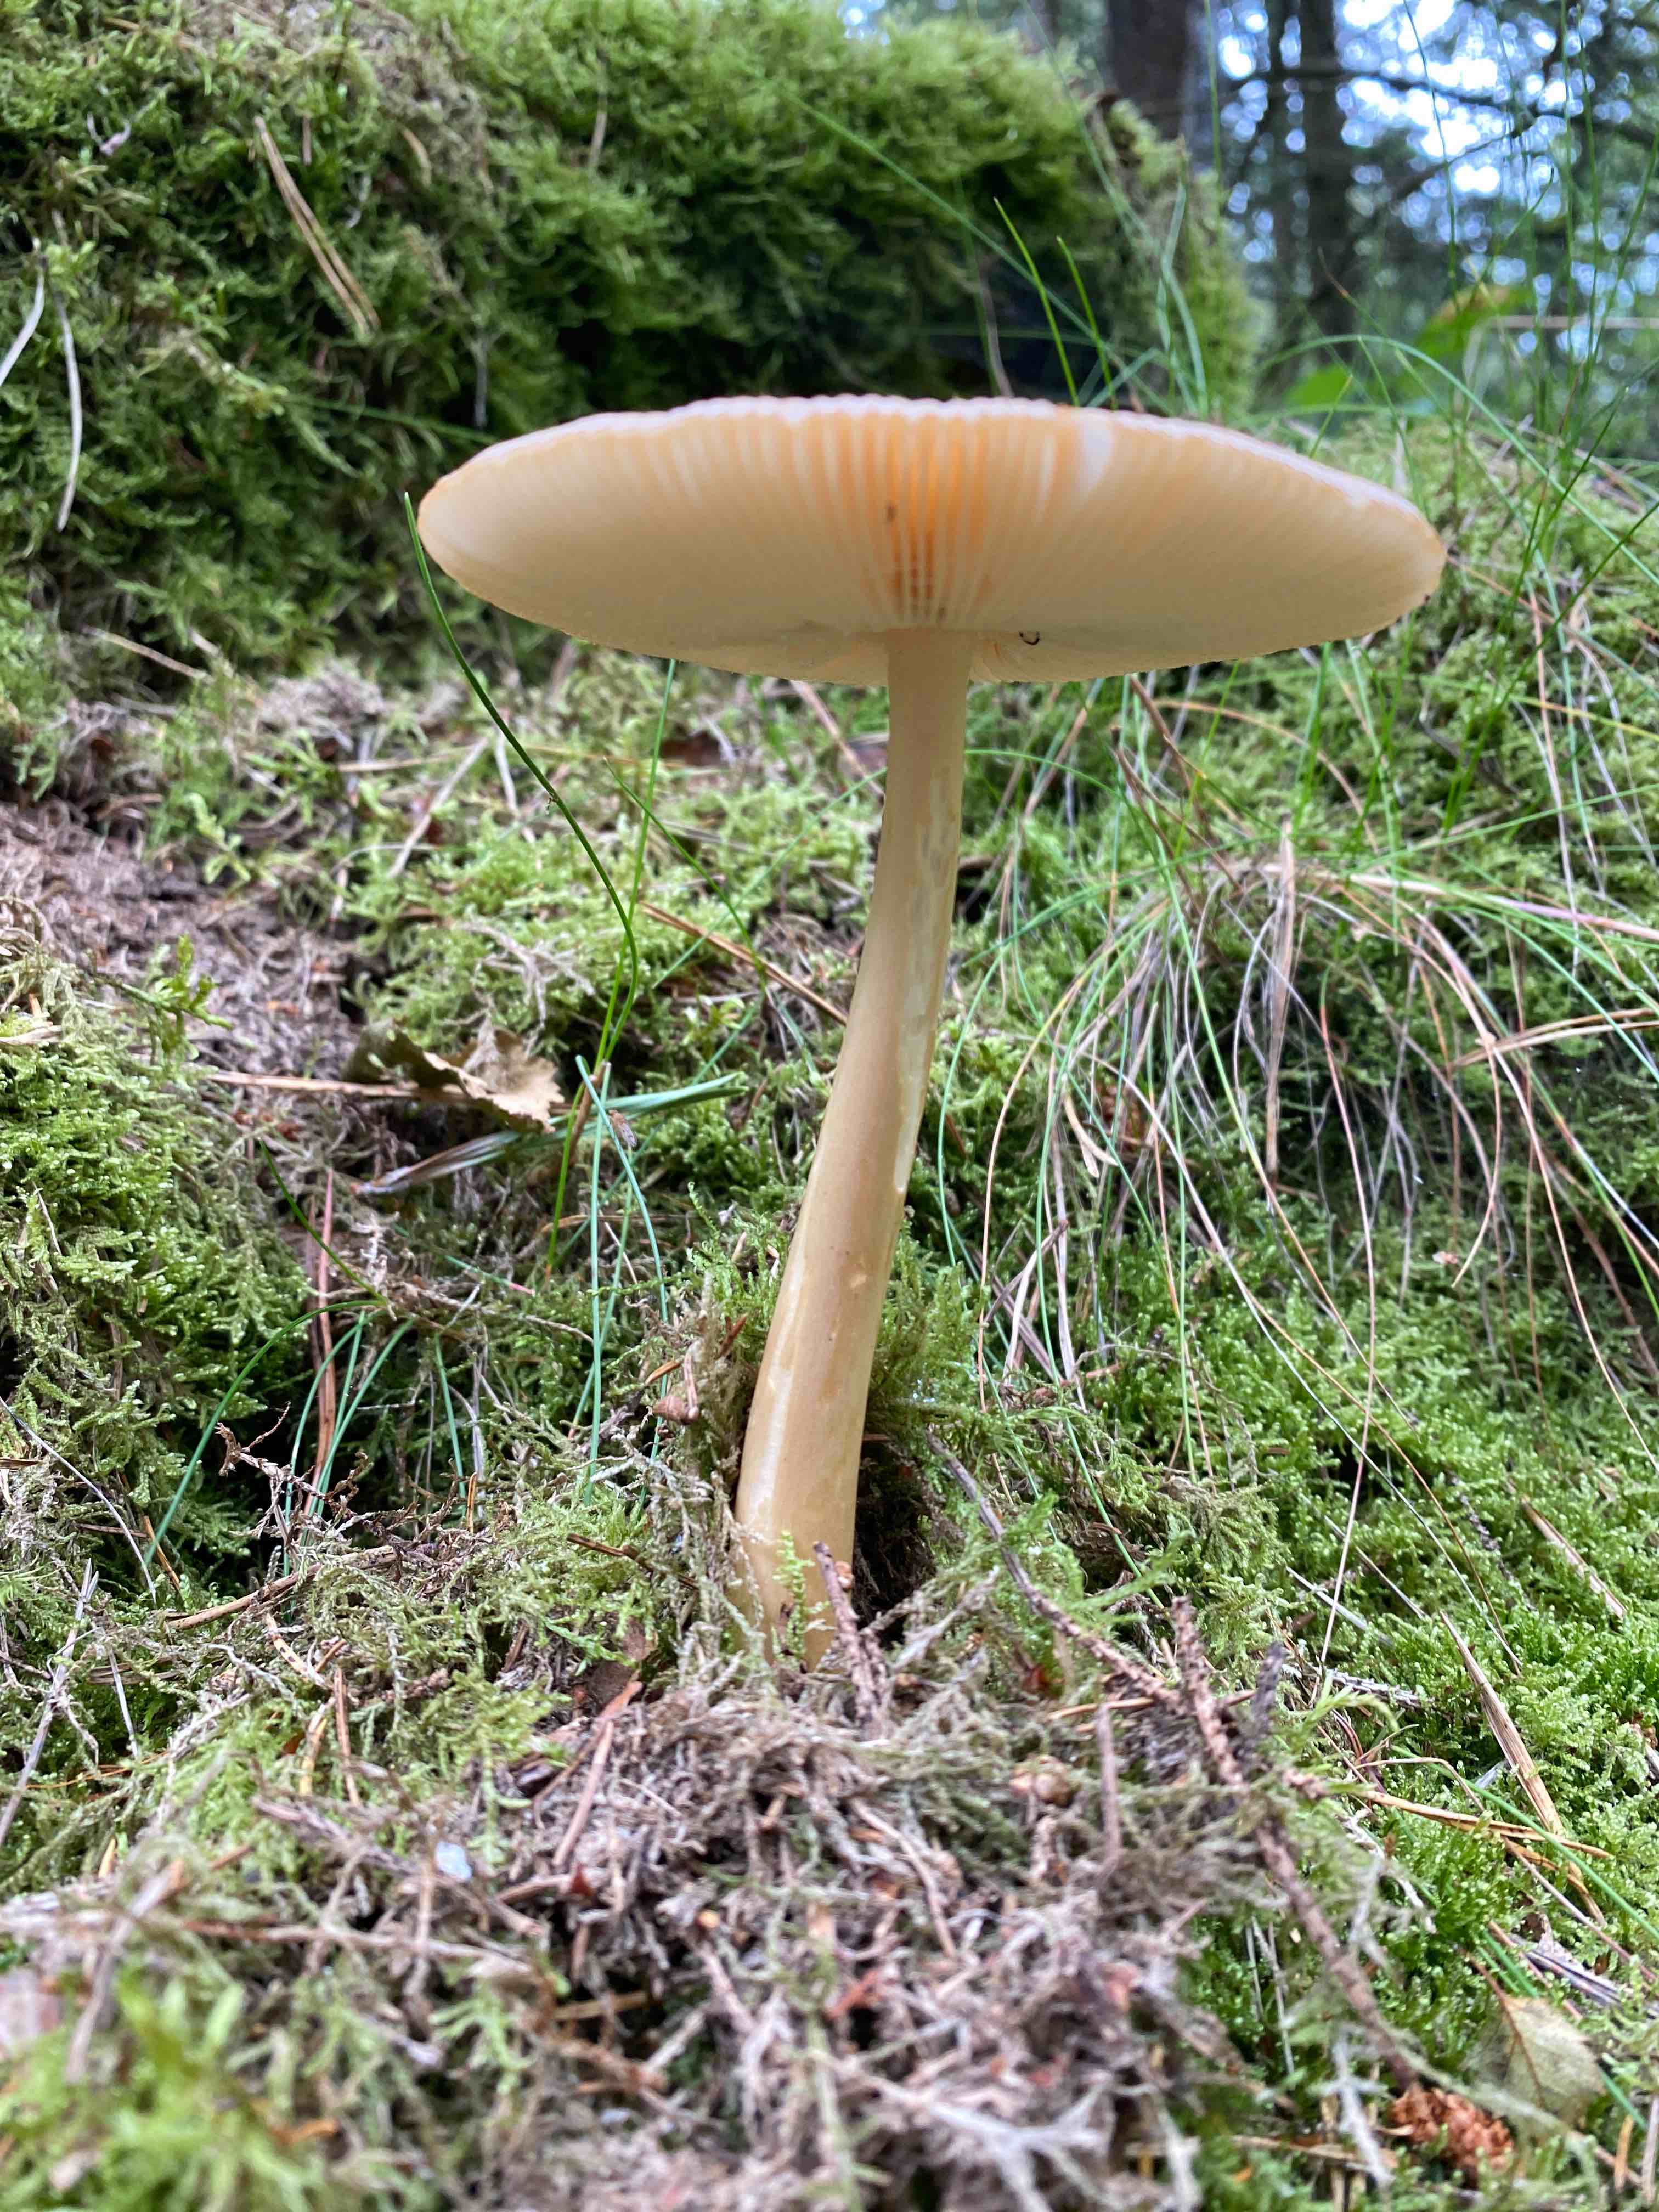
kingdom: Fungi
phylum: Basidiomycota
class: Agaricomycetes
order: Agaricales
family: Amanitaceae
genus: Amanita
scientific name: Amanita fulva
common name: brun kam-fluesvamp
